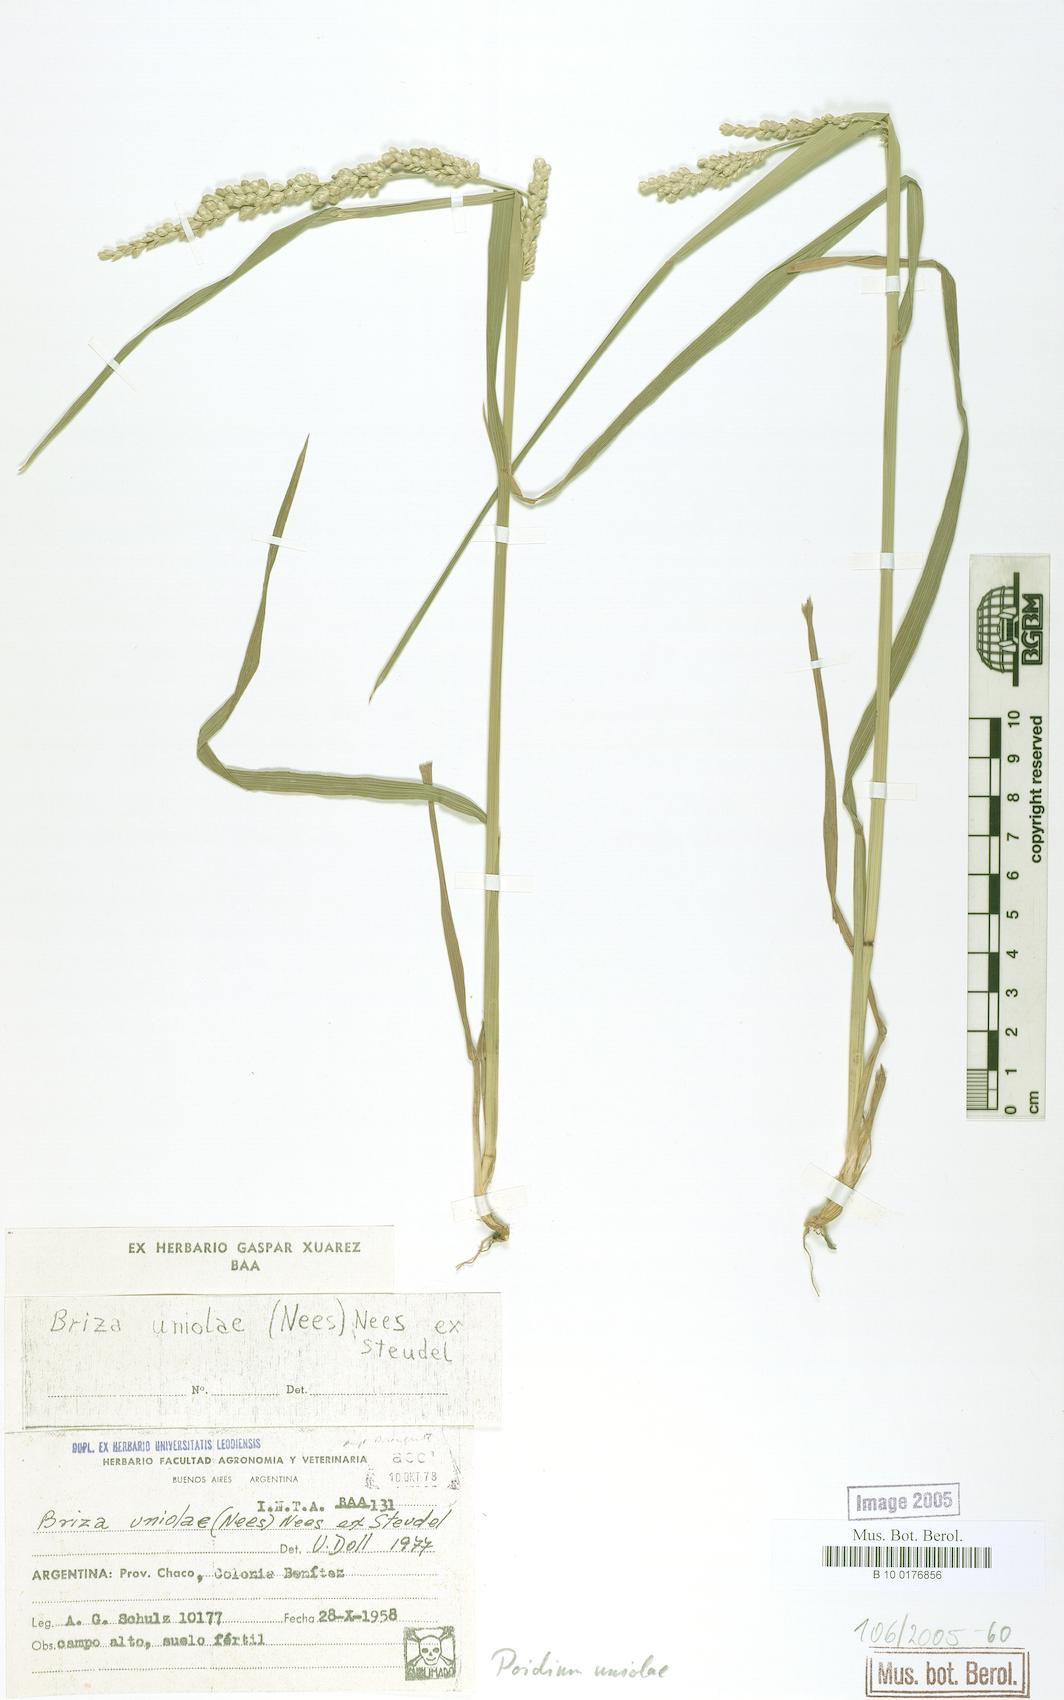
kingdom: Plantae
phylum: Tracheophyta
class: Liliopsida
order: Poales
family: Poaceae
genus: Poidium
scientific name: Poidium uniolae
